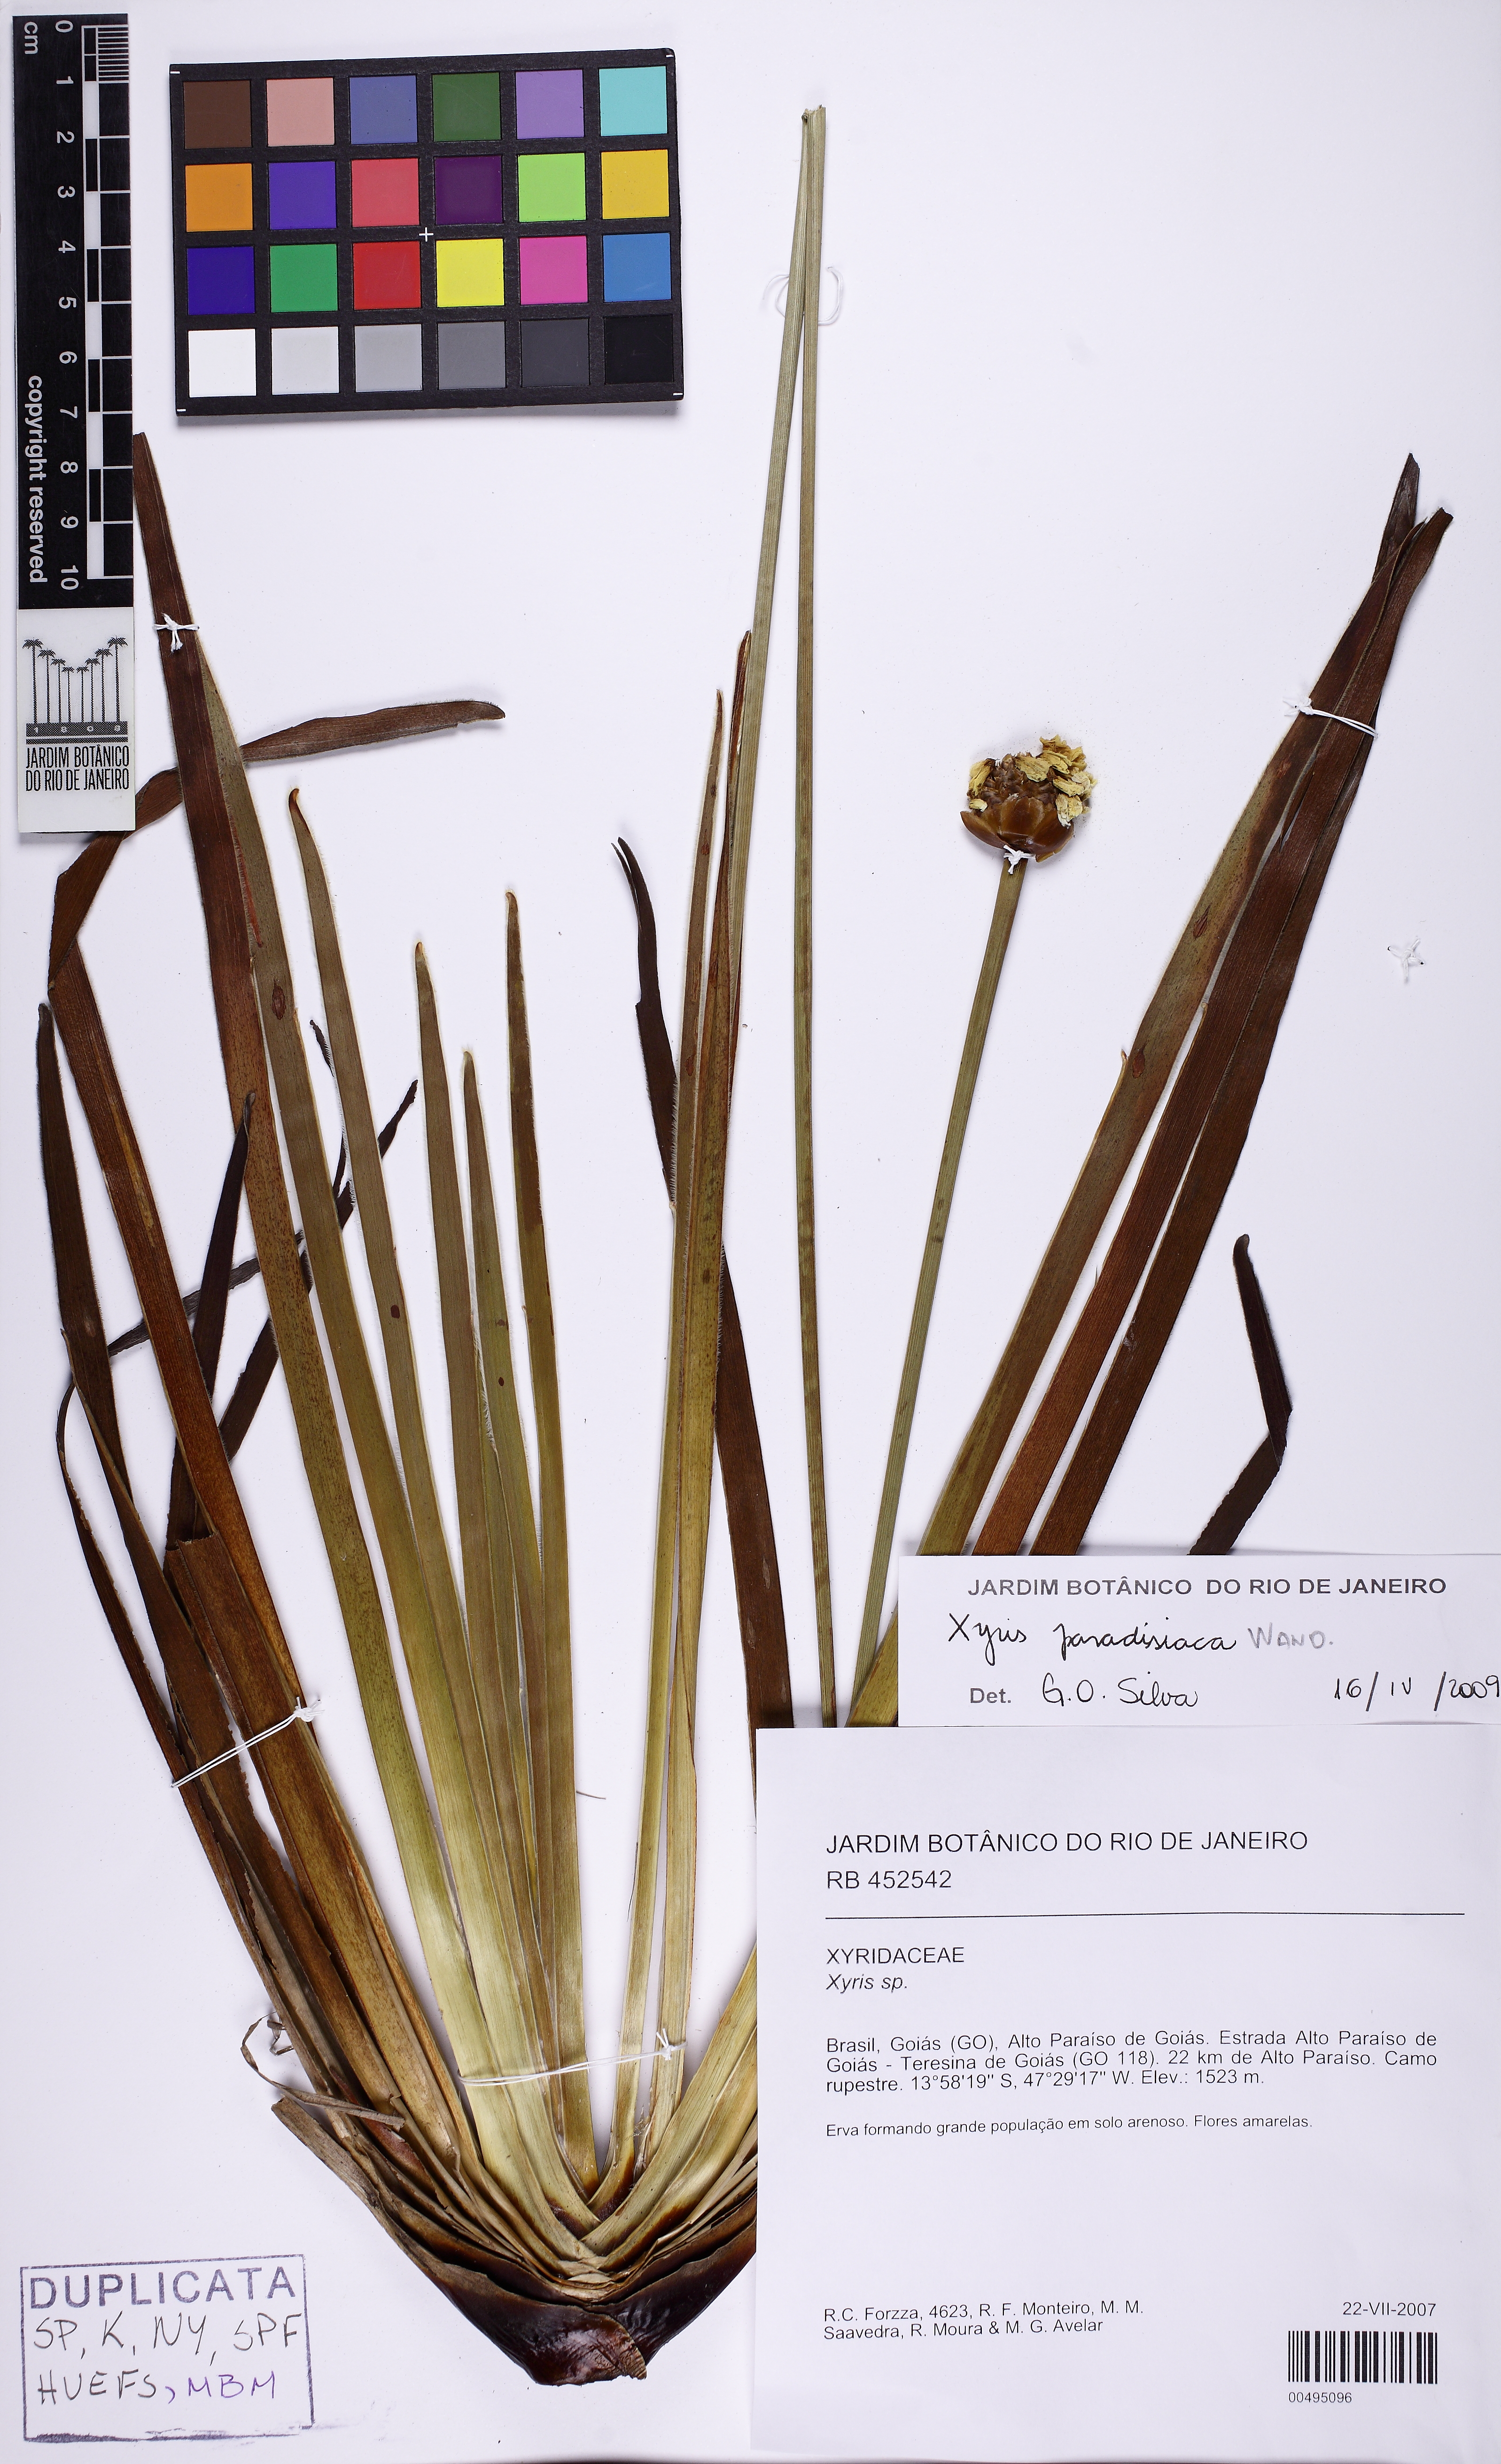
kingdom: Plantae
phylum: Tracheophyta
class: Liliopsida
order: Poales
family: Xyridaceae
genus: Xyris
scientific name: Xyris paradisiaca
